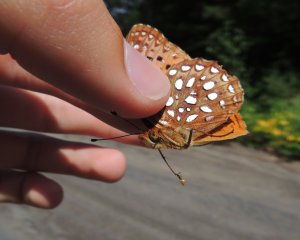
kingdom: Animalia
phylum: Arthropoda
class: Insecta
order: Lepidoptera
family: Nymphalidae
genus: Speyeria
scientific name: Speyeria aphrodite
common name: Aphrodite Fritillary
